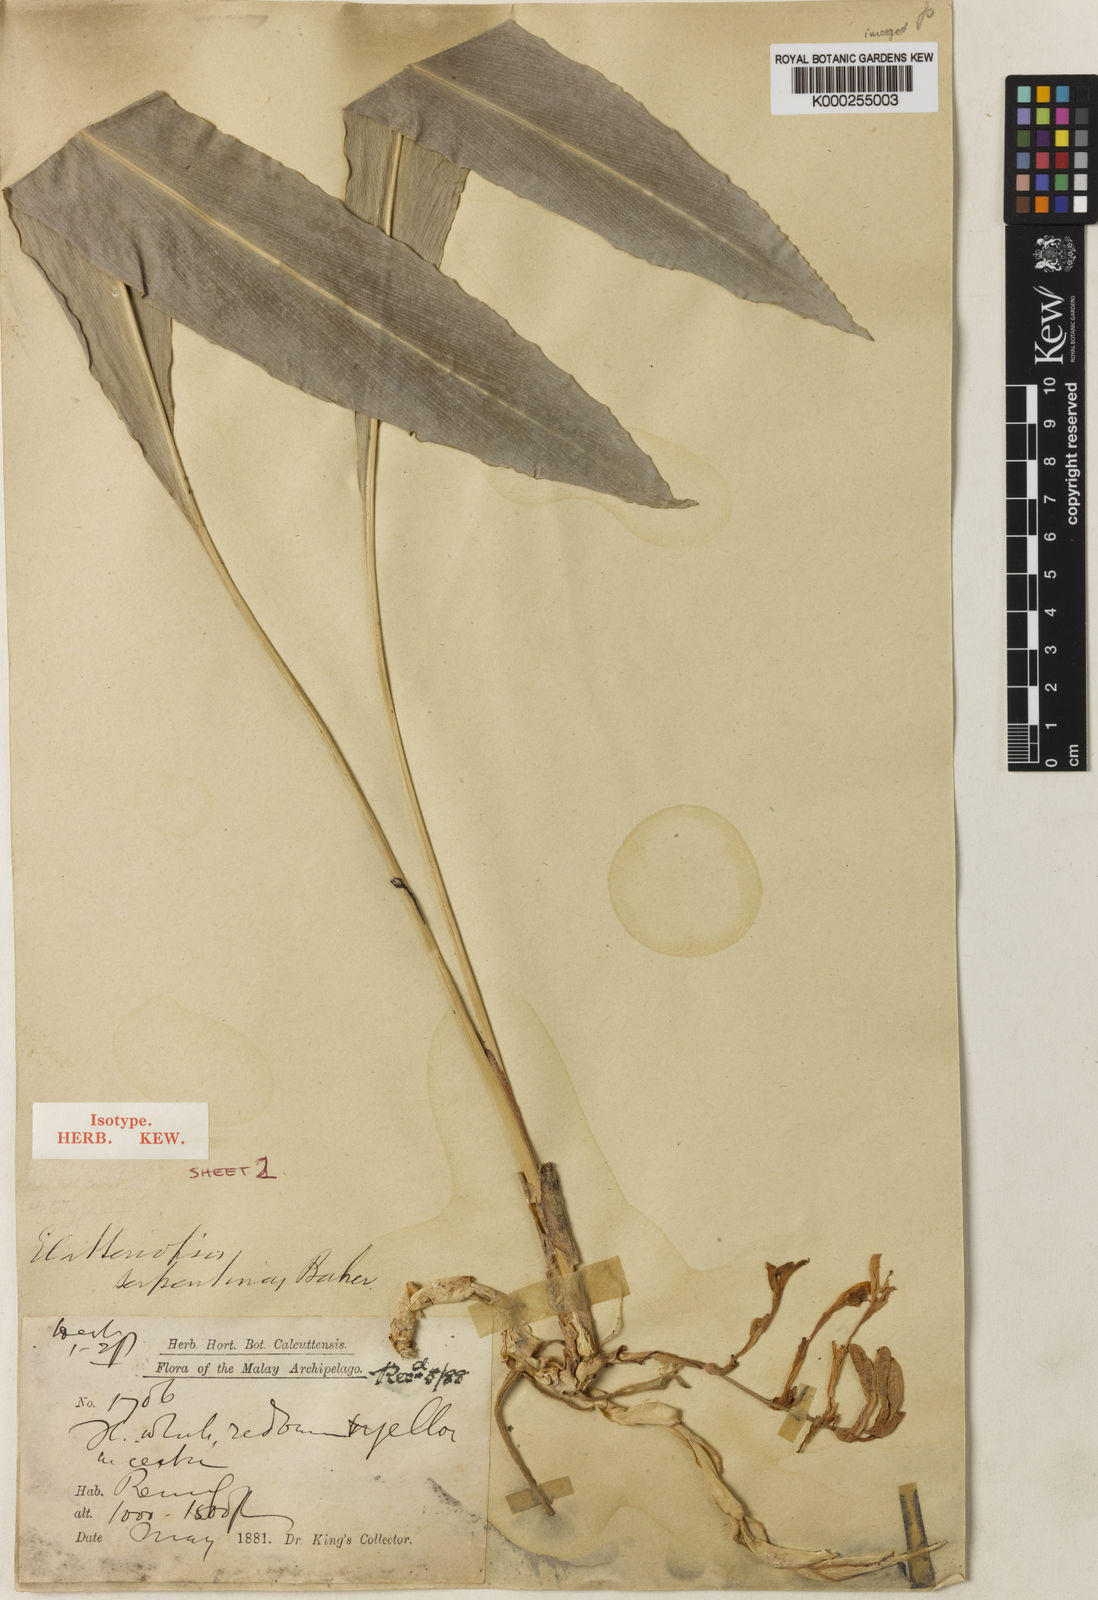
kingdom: Plantae
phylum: Tracheophyta
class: Liliopsida
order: Zingiberales
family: Zingiberaceae
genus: Amomum
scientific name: Amomum curtisii
